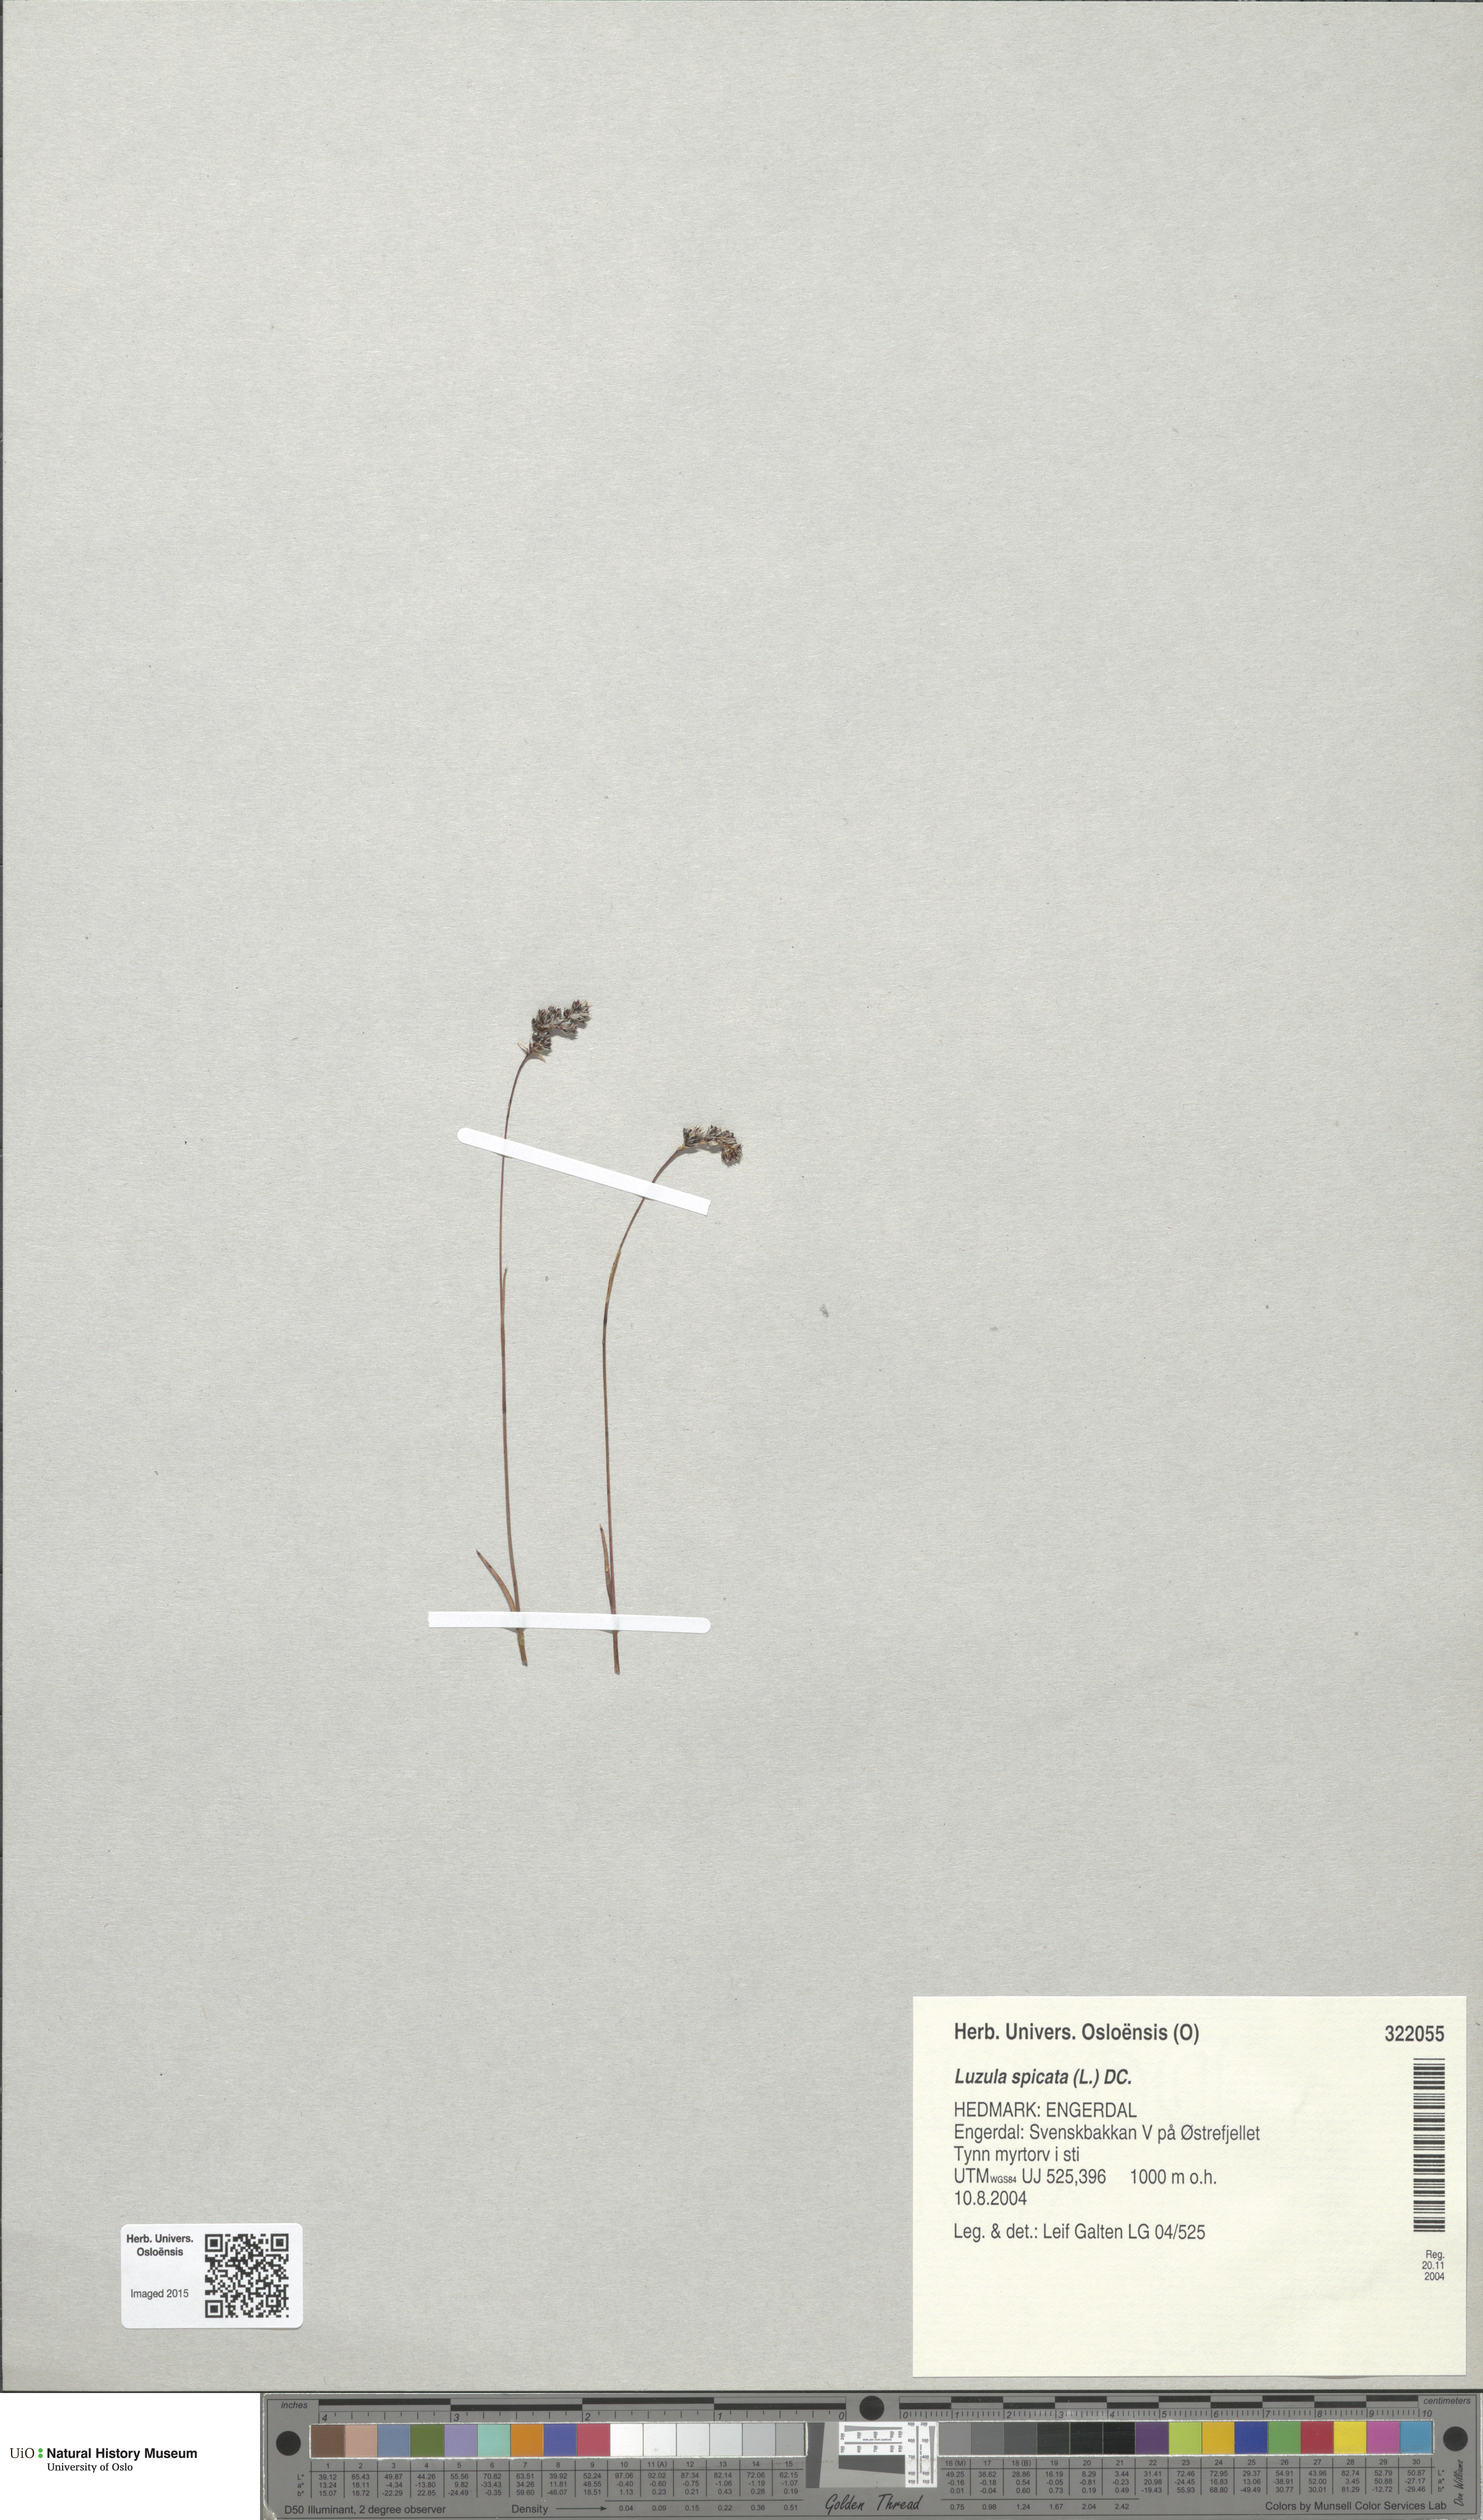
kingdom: Plantae
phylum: Tracheophyta
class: Liliopsida
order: Poales
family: Juncaceae
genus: Luzula
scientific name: Luzula spicata
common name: Spiked wood-rush
